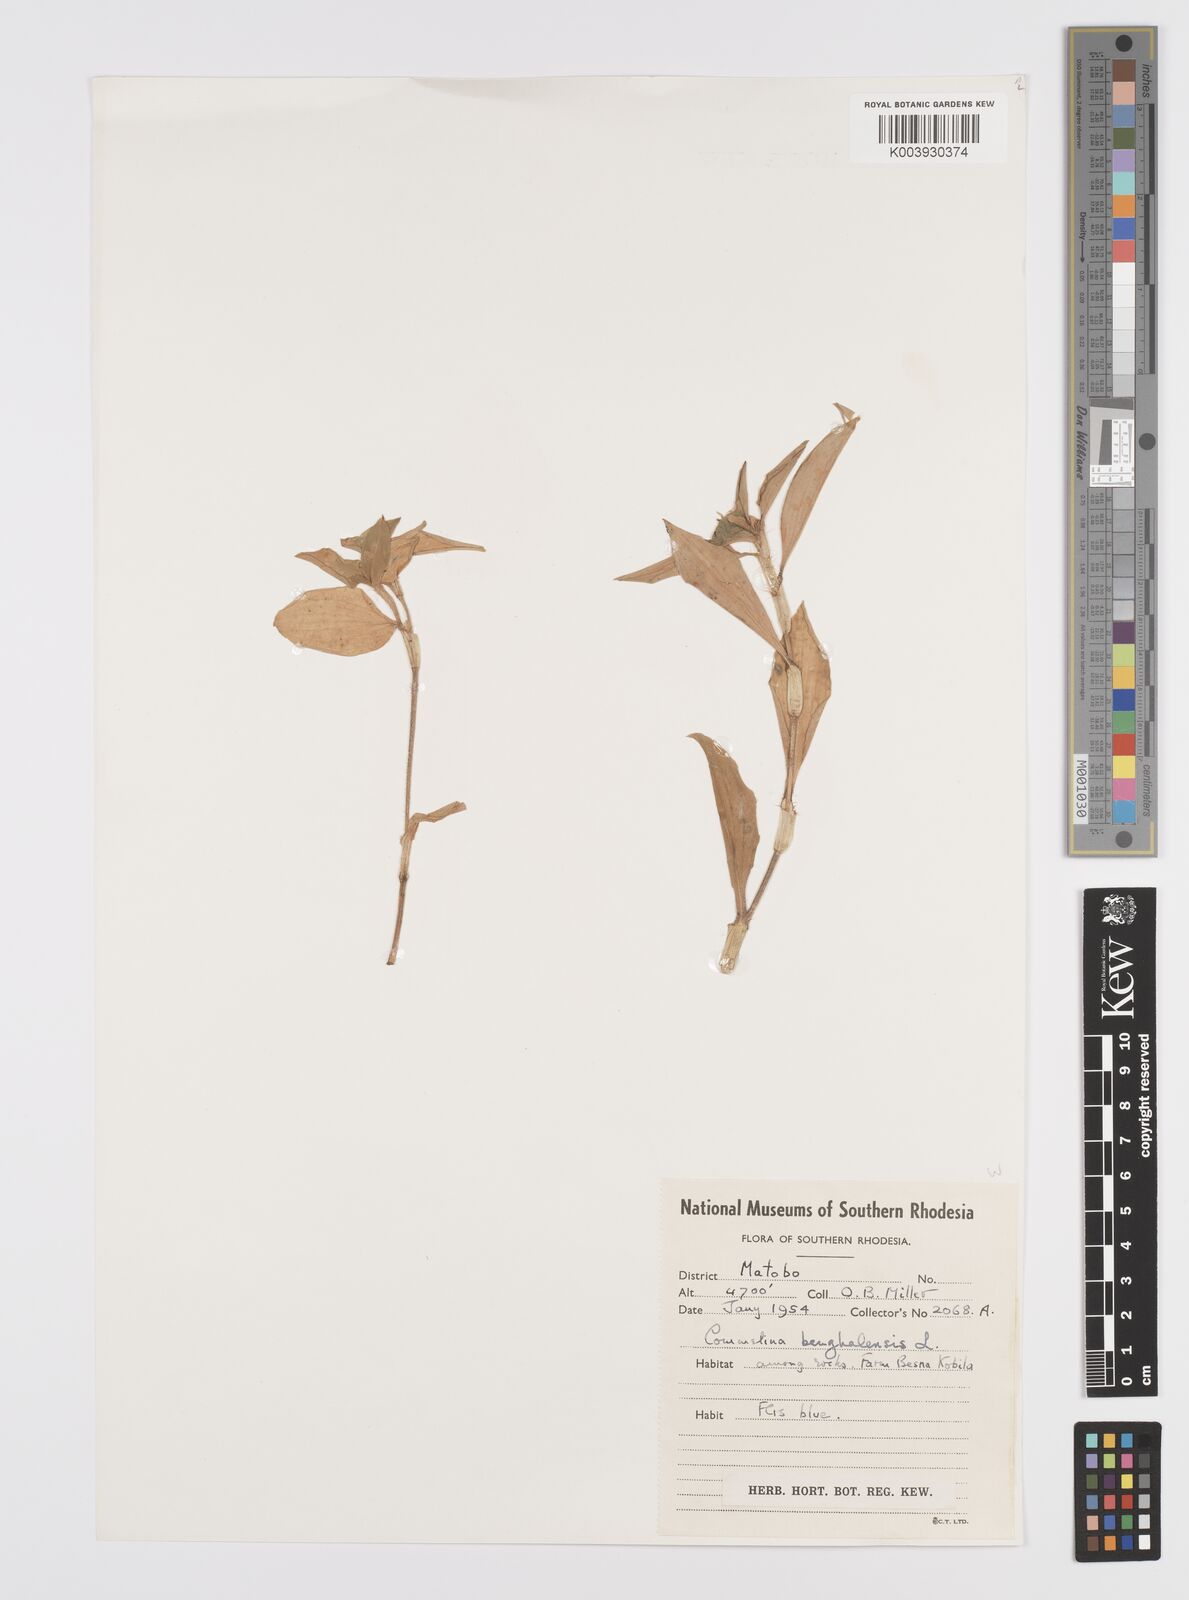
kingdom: Plantae
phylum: Tracheophyta
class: Liliopsida
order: Commelinales
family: Commelinaceae
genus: Commelina
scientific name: Commelina benghalensis
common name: Jio
